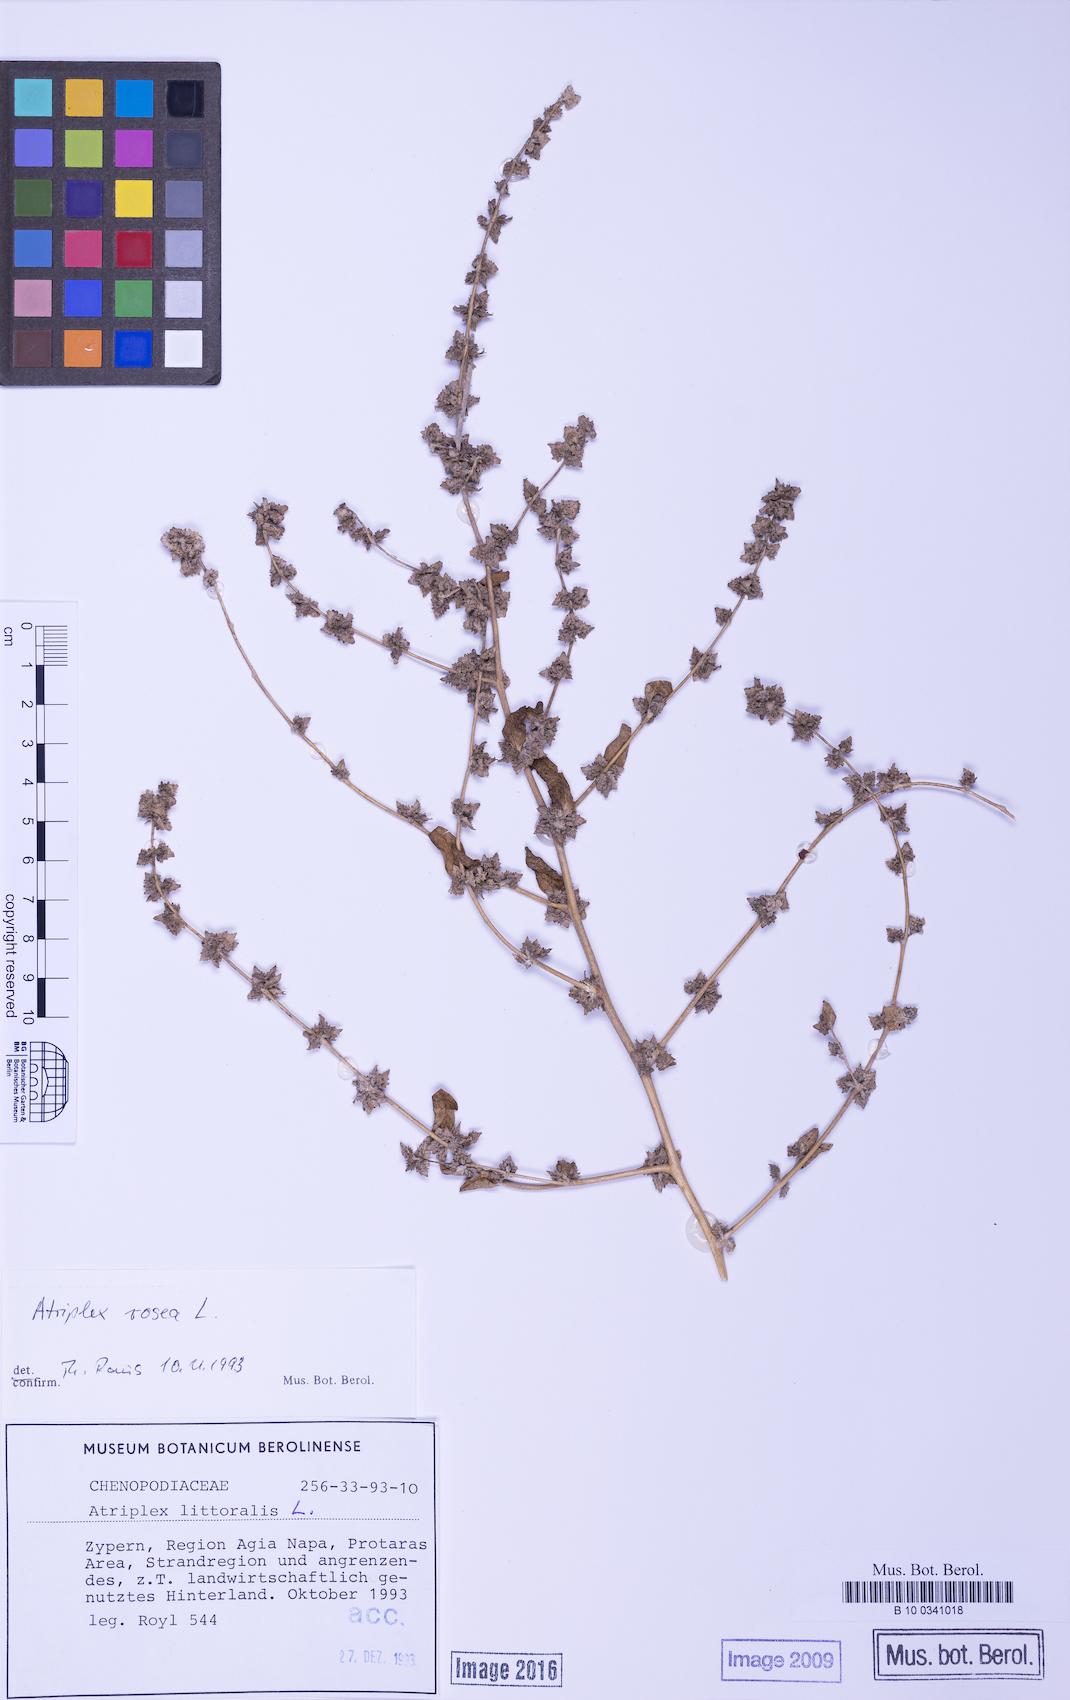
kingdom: Plantae
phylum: Tracheophyta
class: Magnoliopsida
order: Caryophyllales
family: Amaranthaceae
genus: Atriplex
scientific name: Atriplex rosea
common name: Tumbling saltweed
